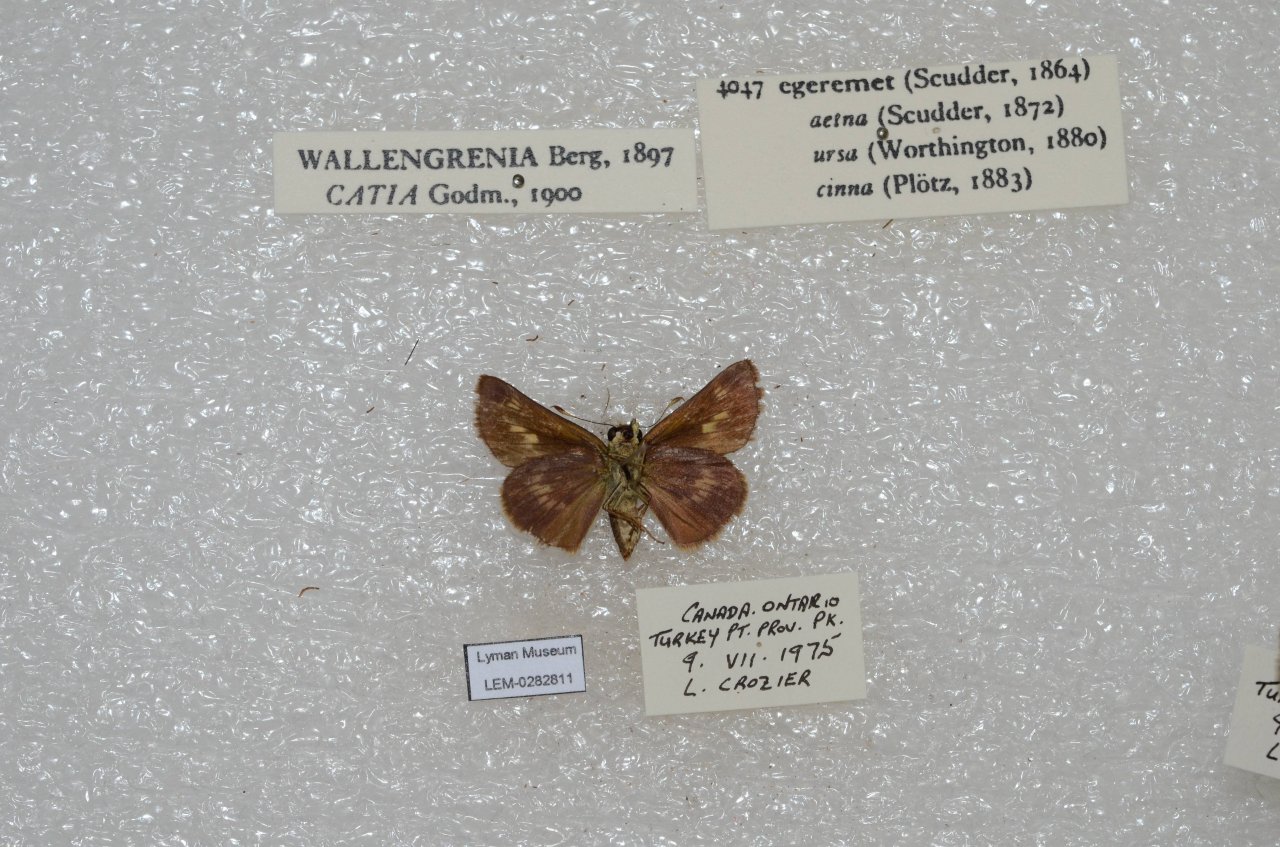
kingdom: Animalia
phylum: Arthropoda
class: Insecta
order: Lepidoptera
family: Hesperiidae
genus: Polites
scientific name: Polites egeremet
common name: Northern Broken-Dash
